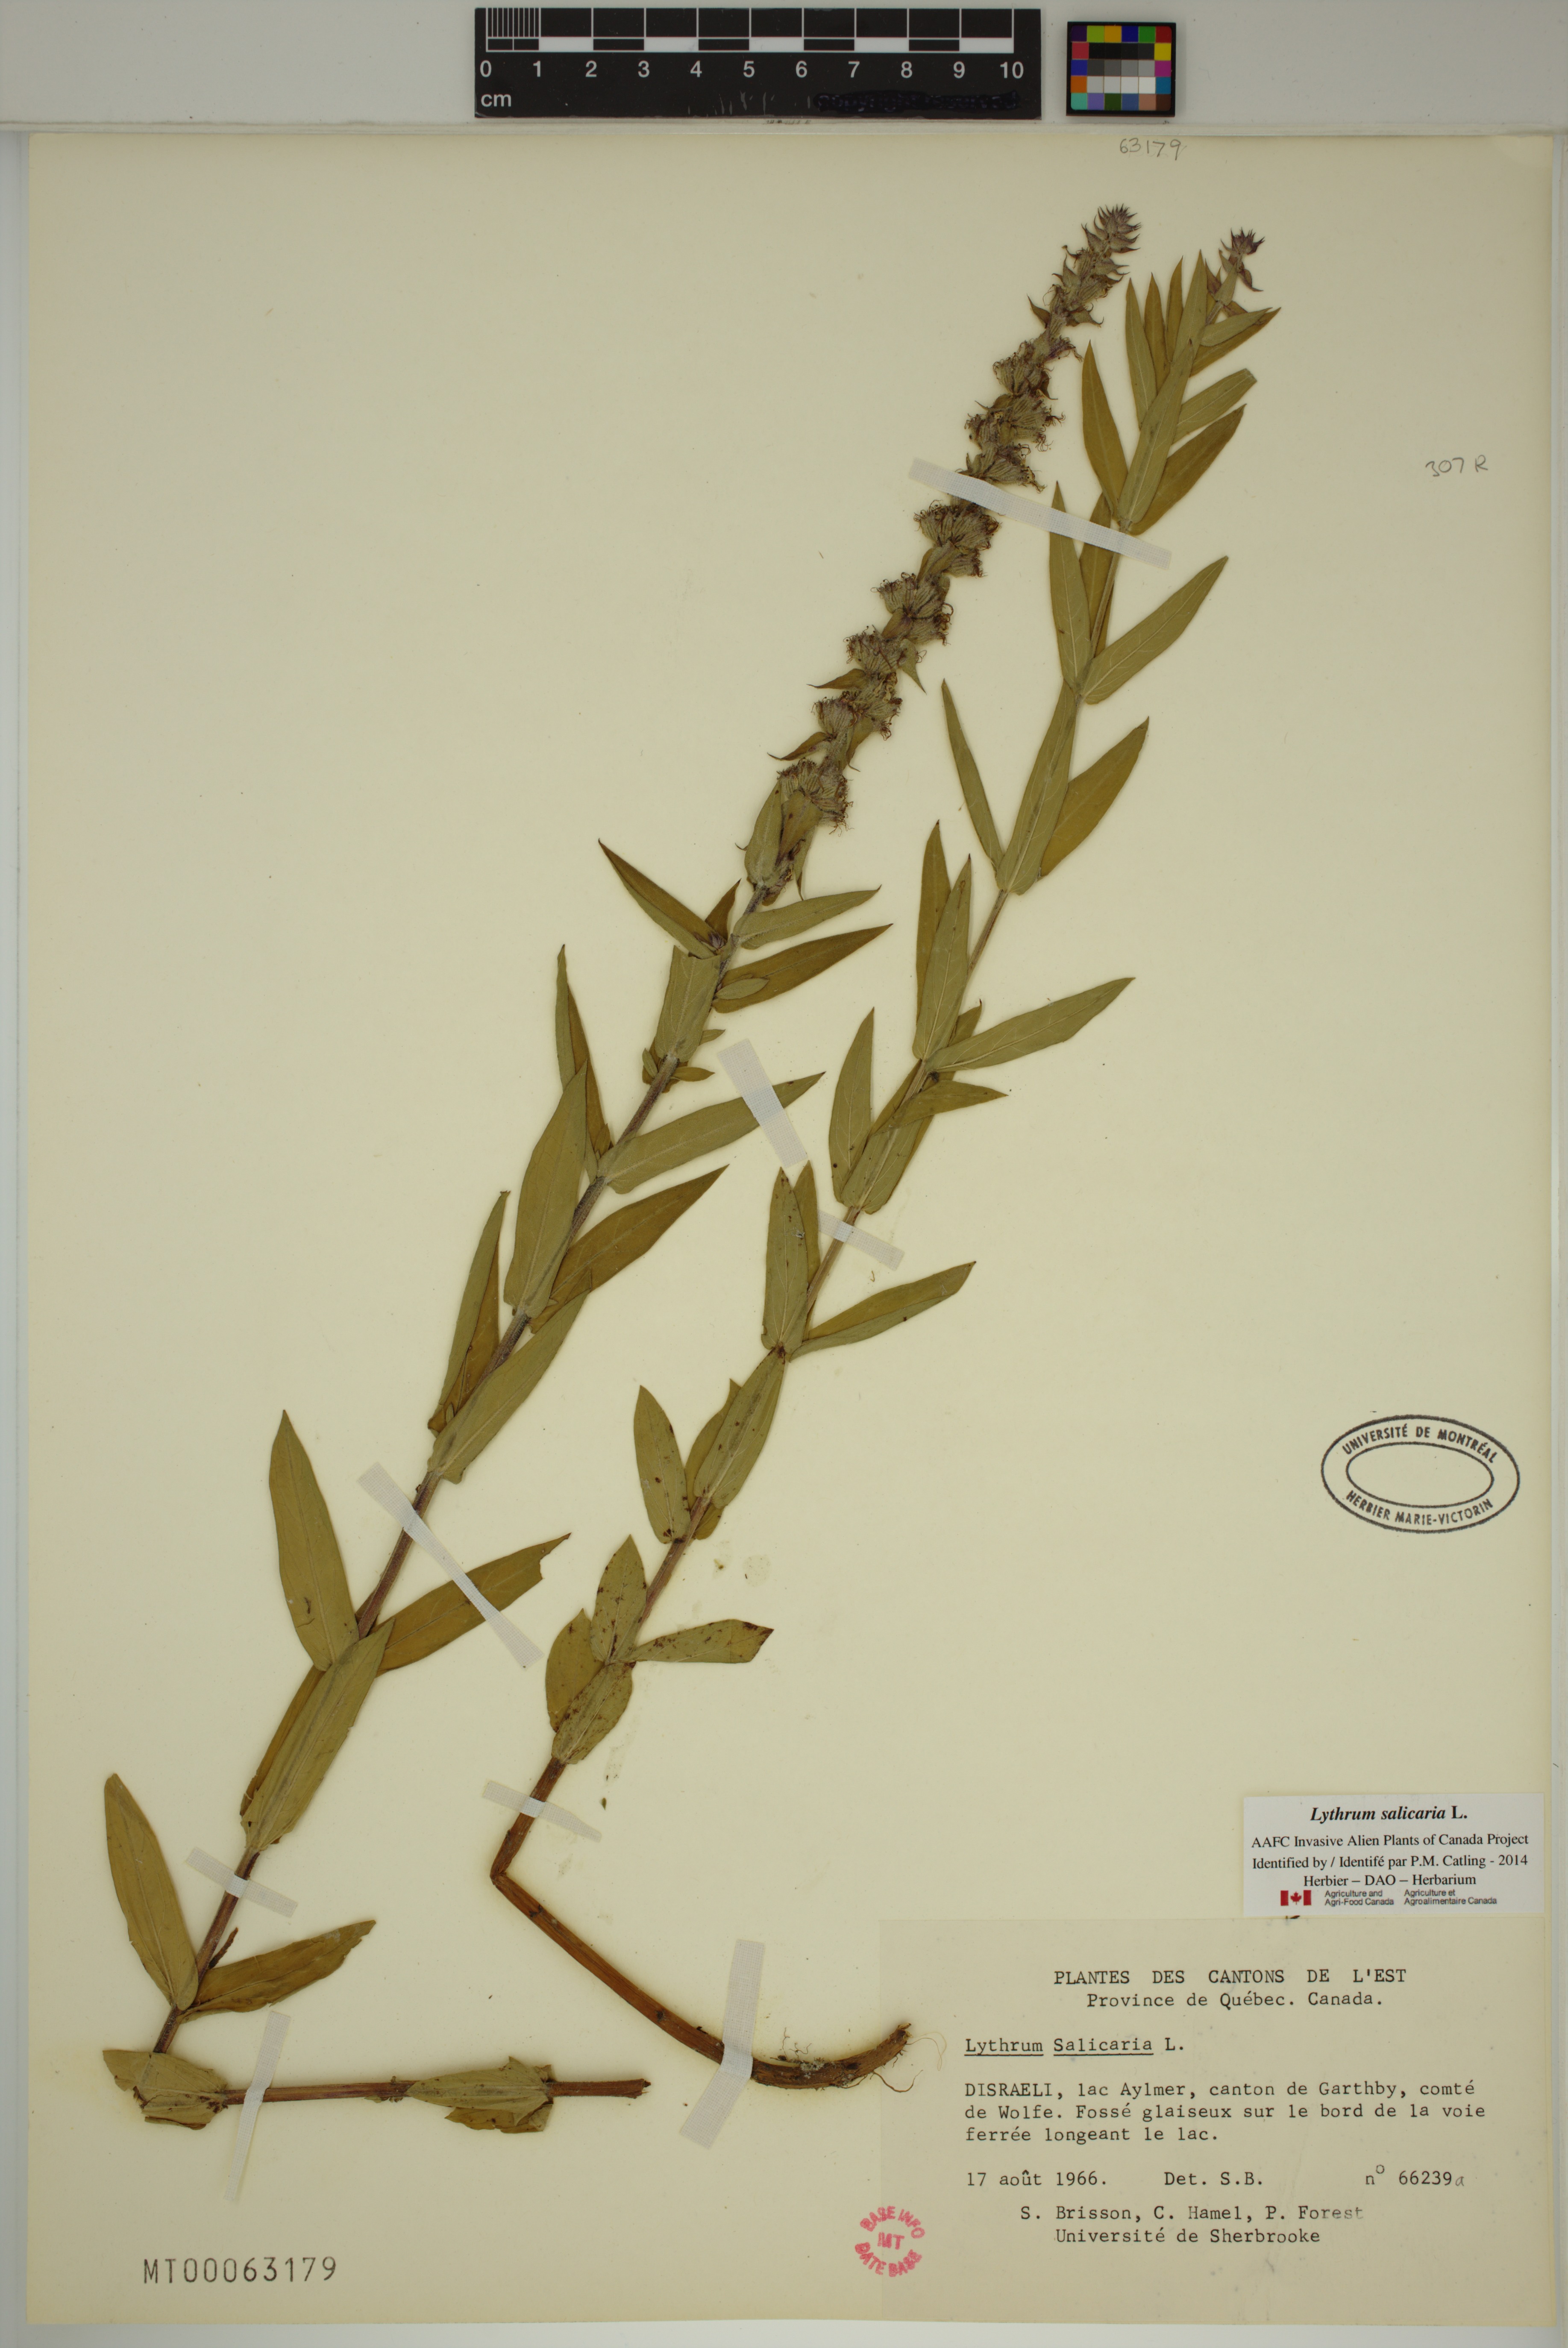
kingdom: Plantae
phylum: Tracheophyta
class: Magnoliopsida
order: Myrtales
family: Lythraceae
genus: Lythrum
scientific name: Lythrum salicaria
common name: Purple loosestrife
